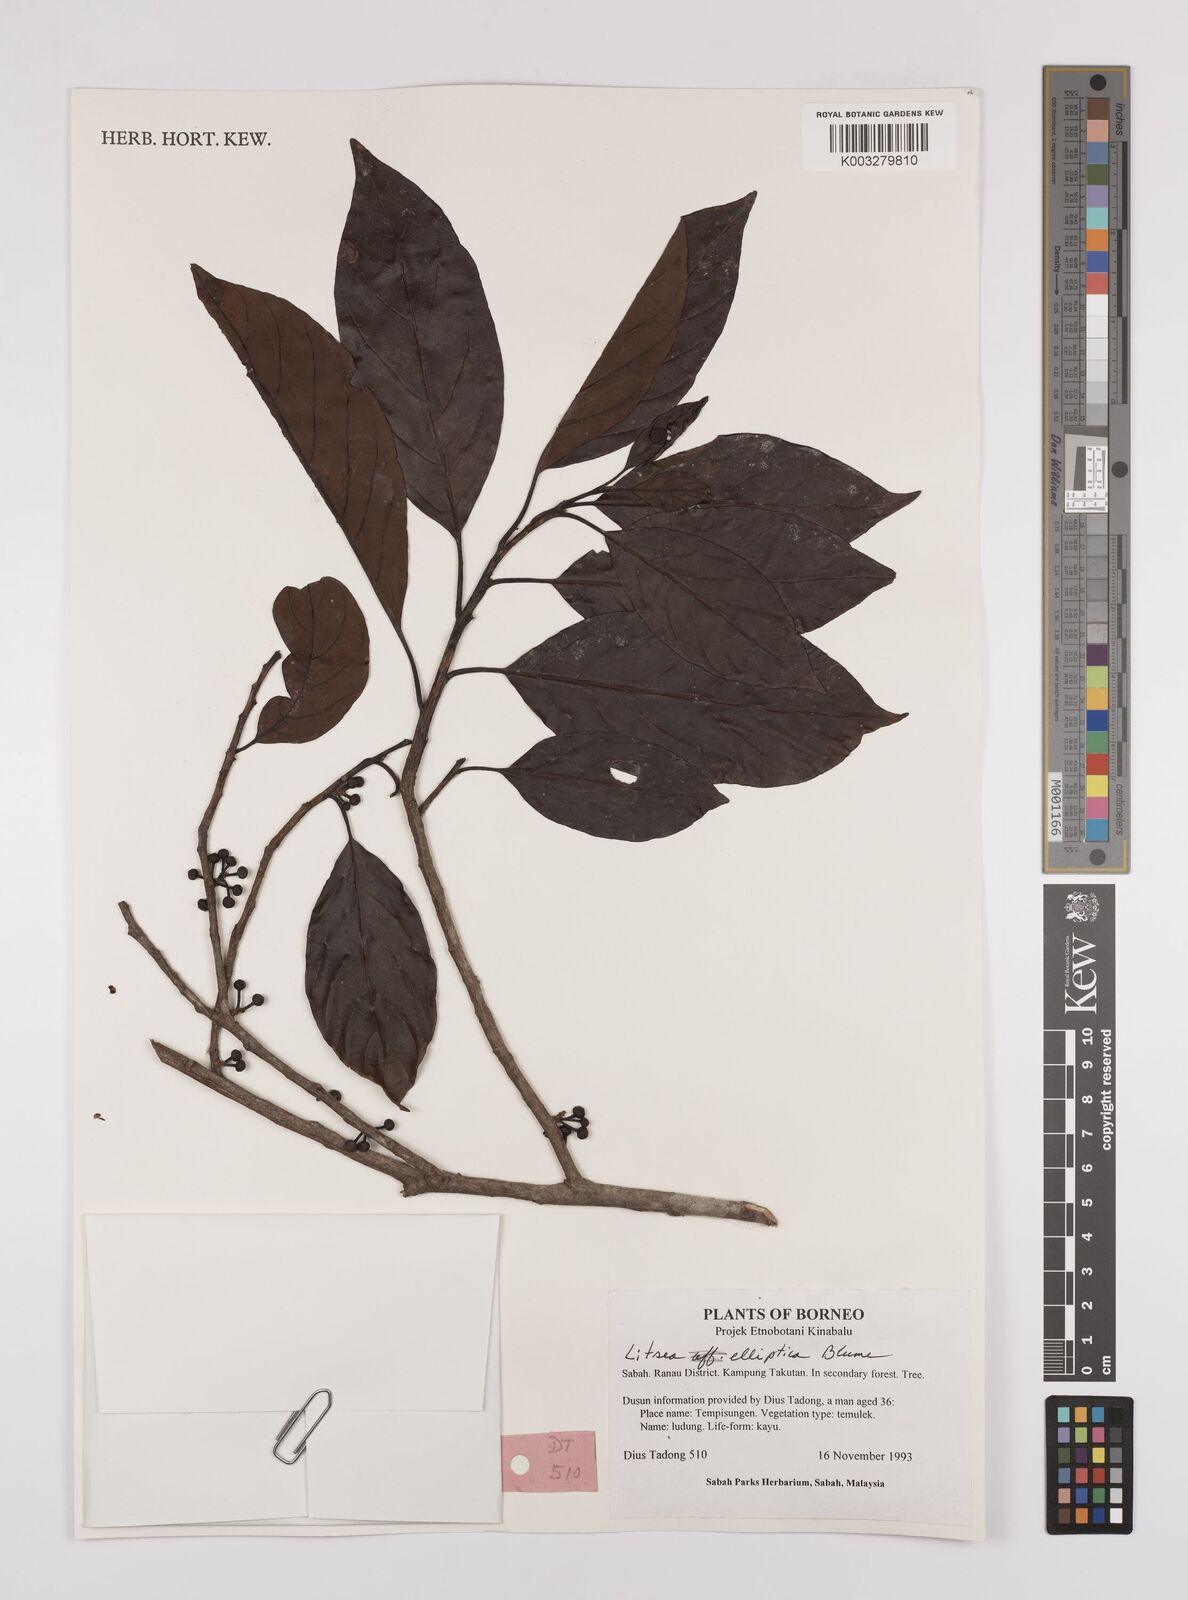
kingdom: Plantae
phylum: Tracheophyta
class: Magnoliopsida
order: Laurales
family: Lauraceae
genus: Litsea
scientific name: Litsea elliptica
